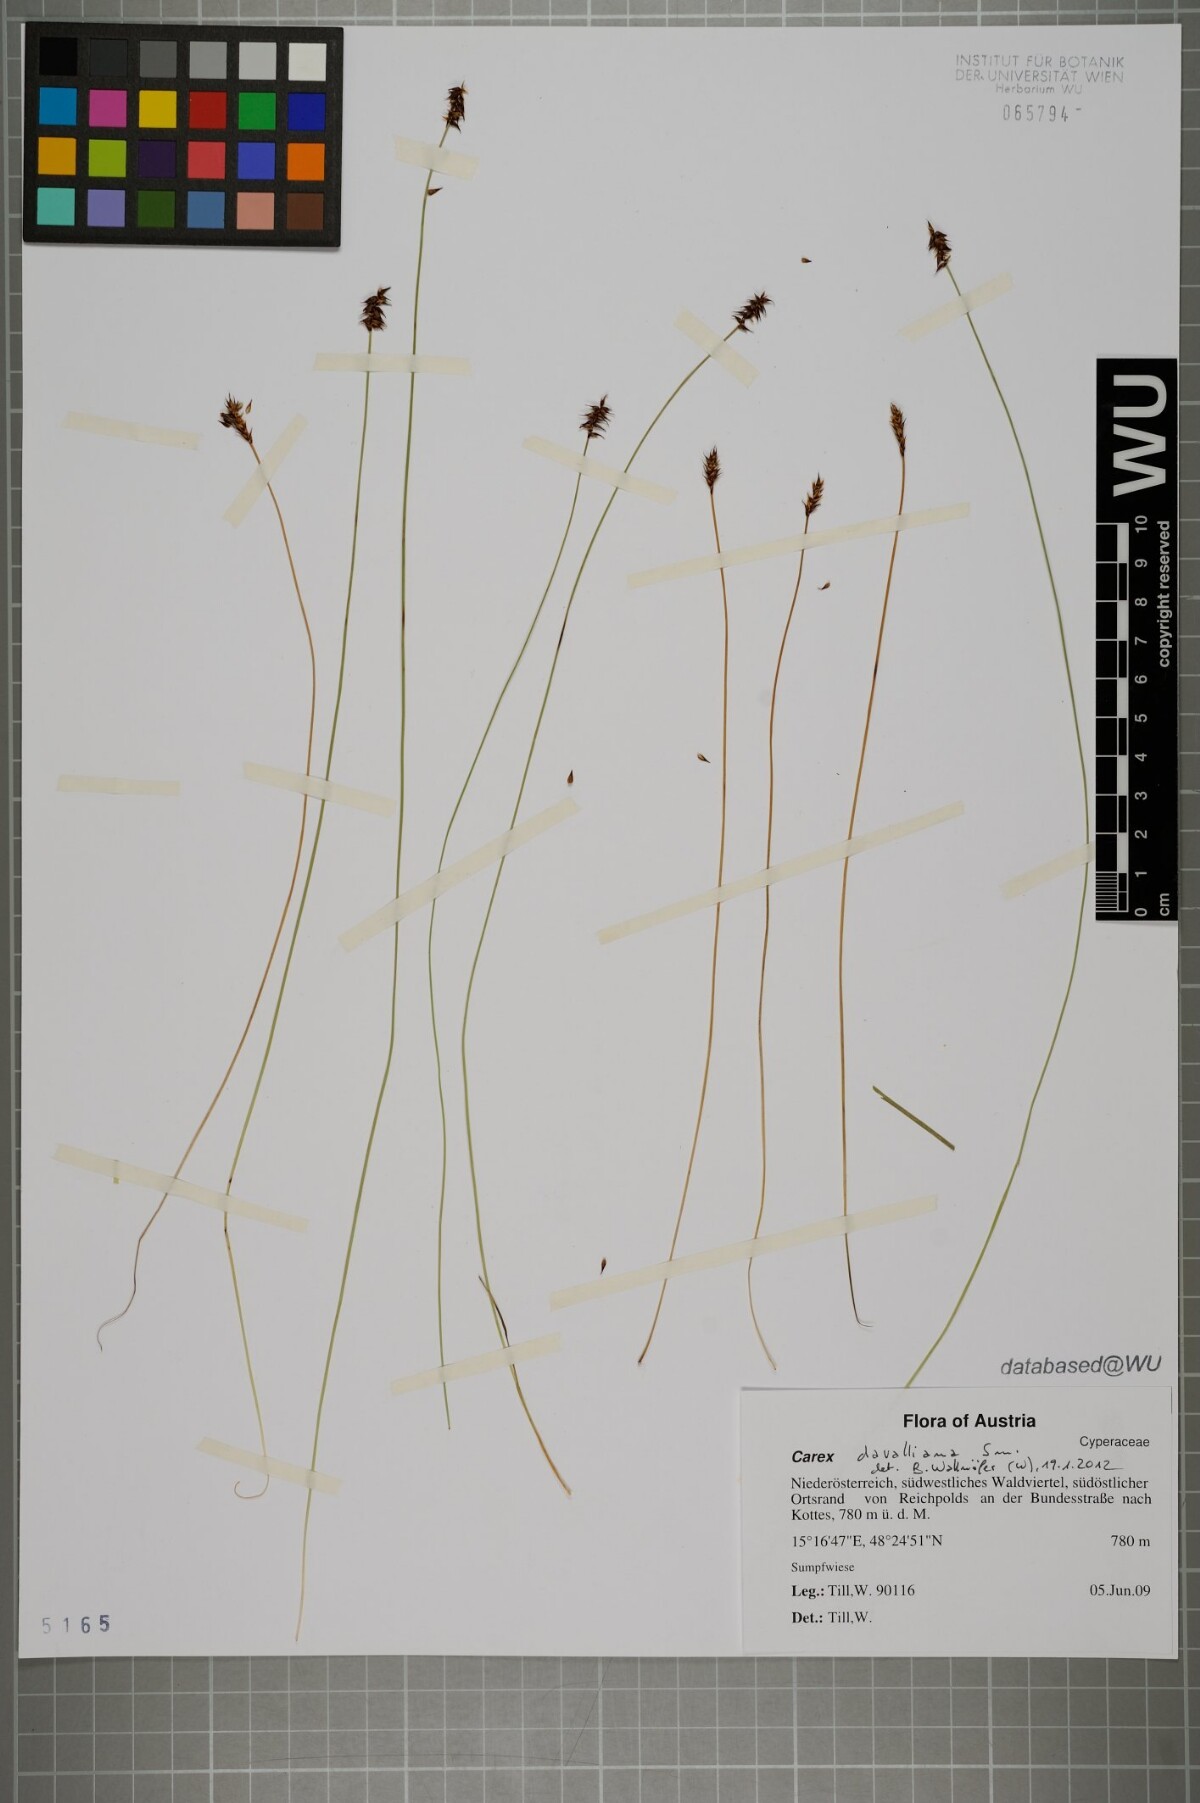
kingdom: Plantae
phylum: Tracheophyta
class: Liliopsida
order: Poales
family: Cyperaceae
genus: Carex
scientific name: Carex davalliana
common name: Davall's sedge
